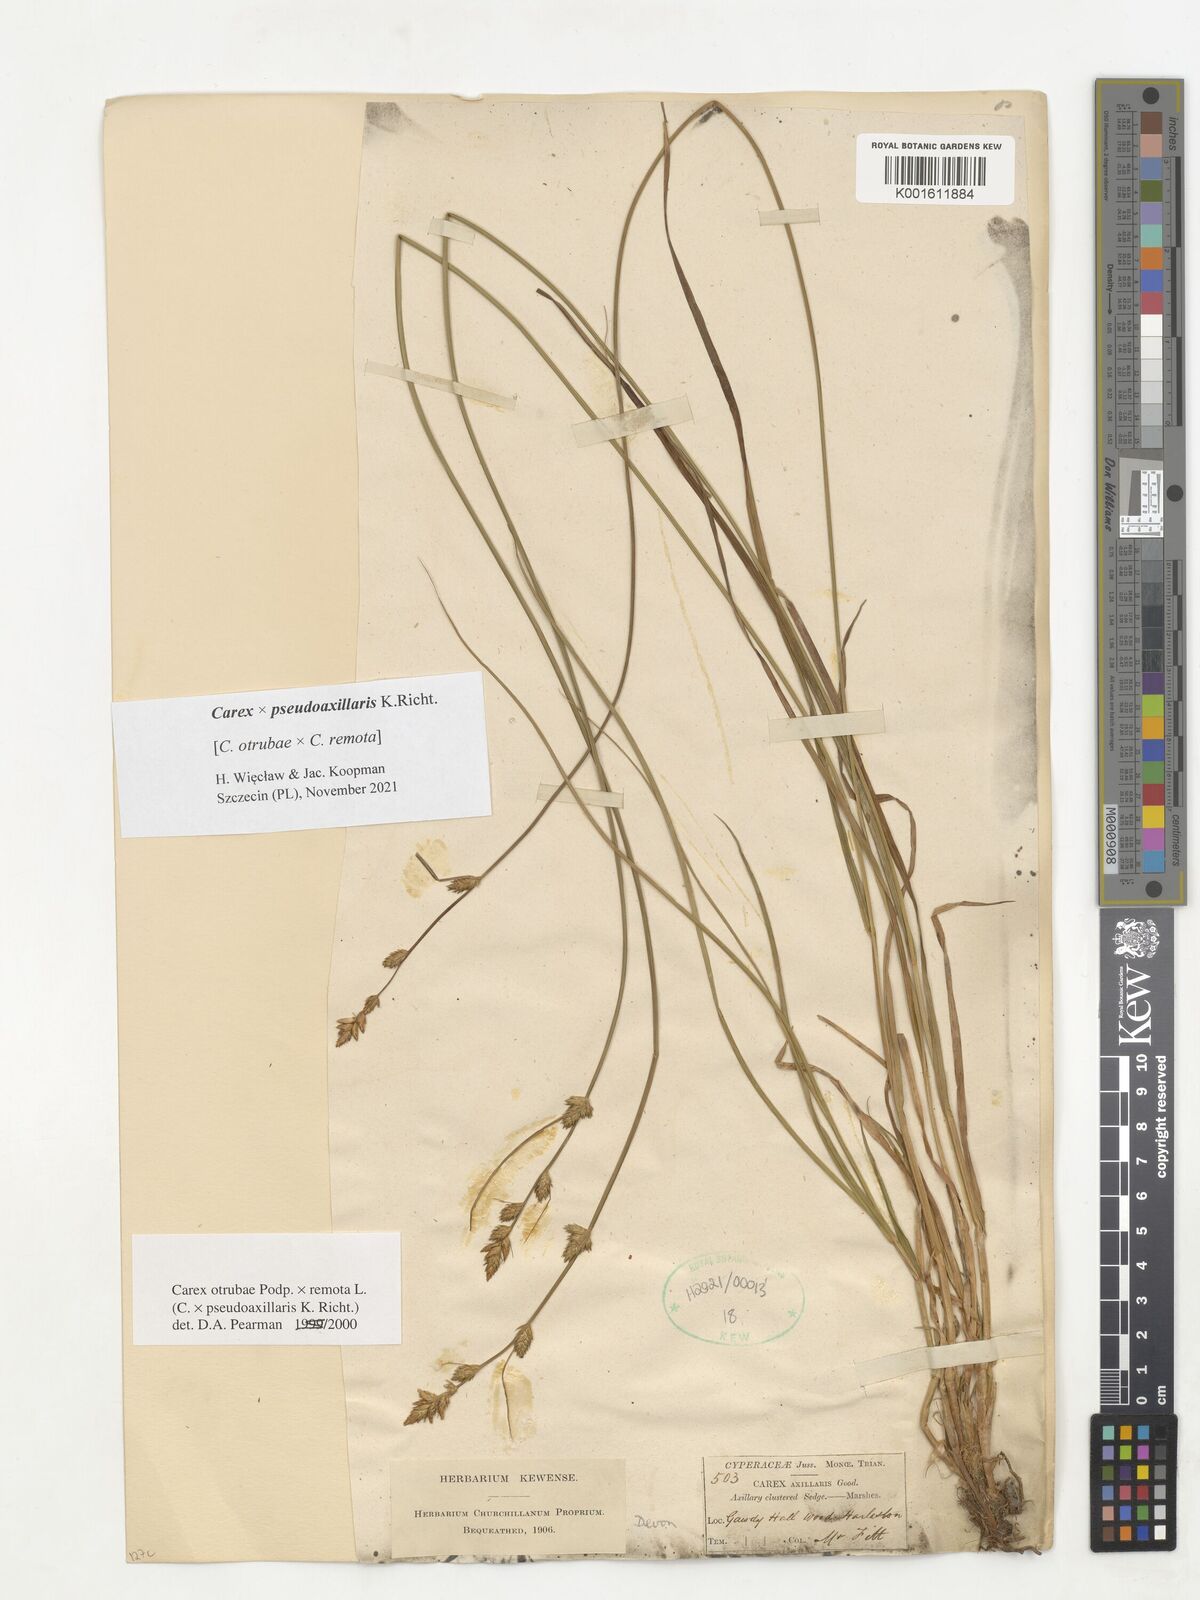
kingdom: Plantae
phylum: Tracheophyta
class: Liliopsida
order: Poales
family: Cyperaceae
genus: Carex
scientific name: Carex pseudoaxillaris
